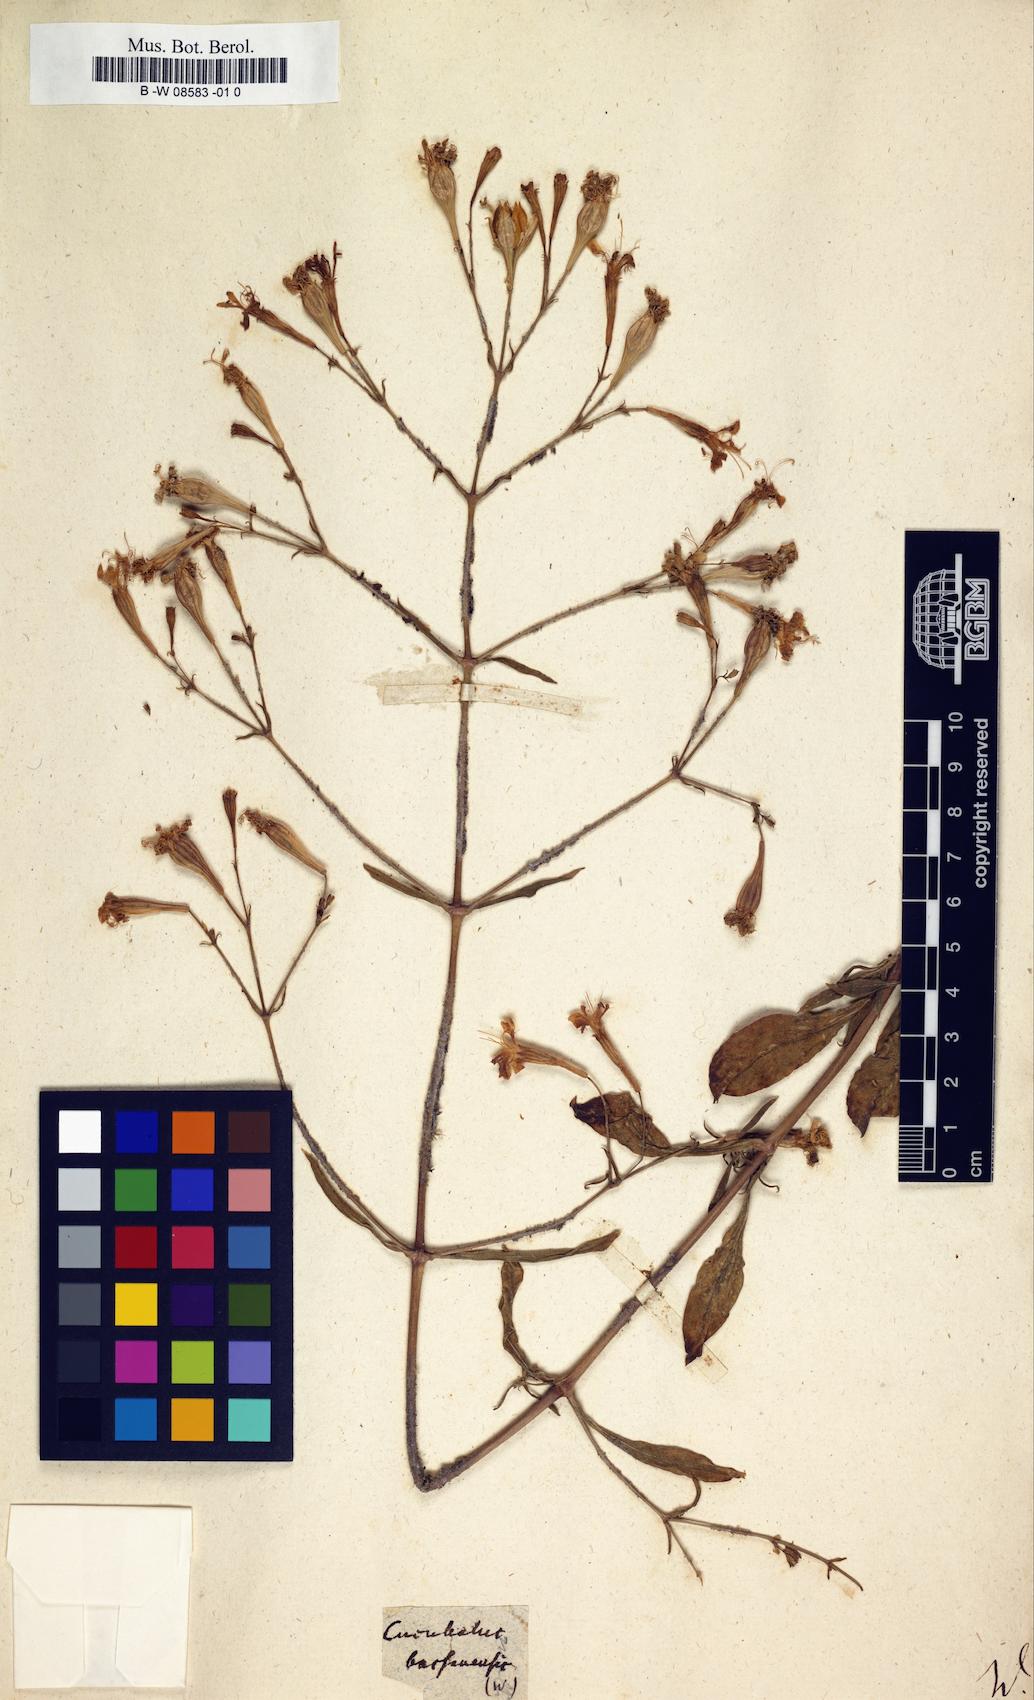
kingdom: Animalia
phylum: Cnidaria
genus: Cucubalus
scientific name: Cucubalus
